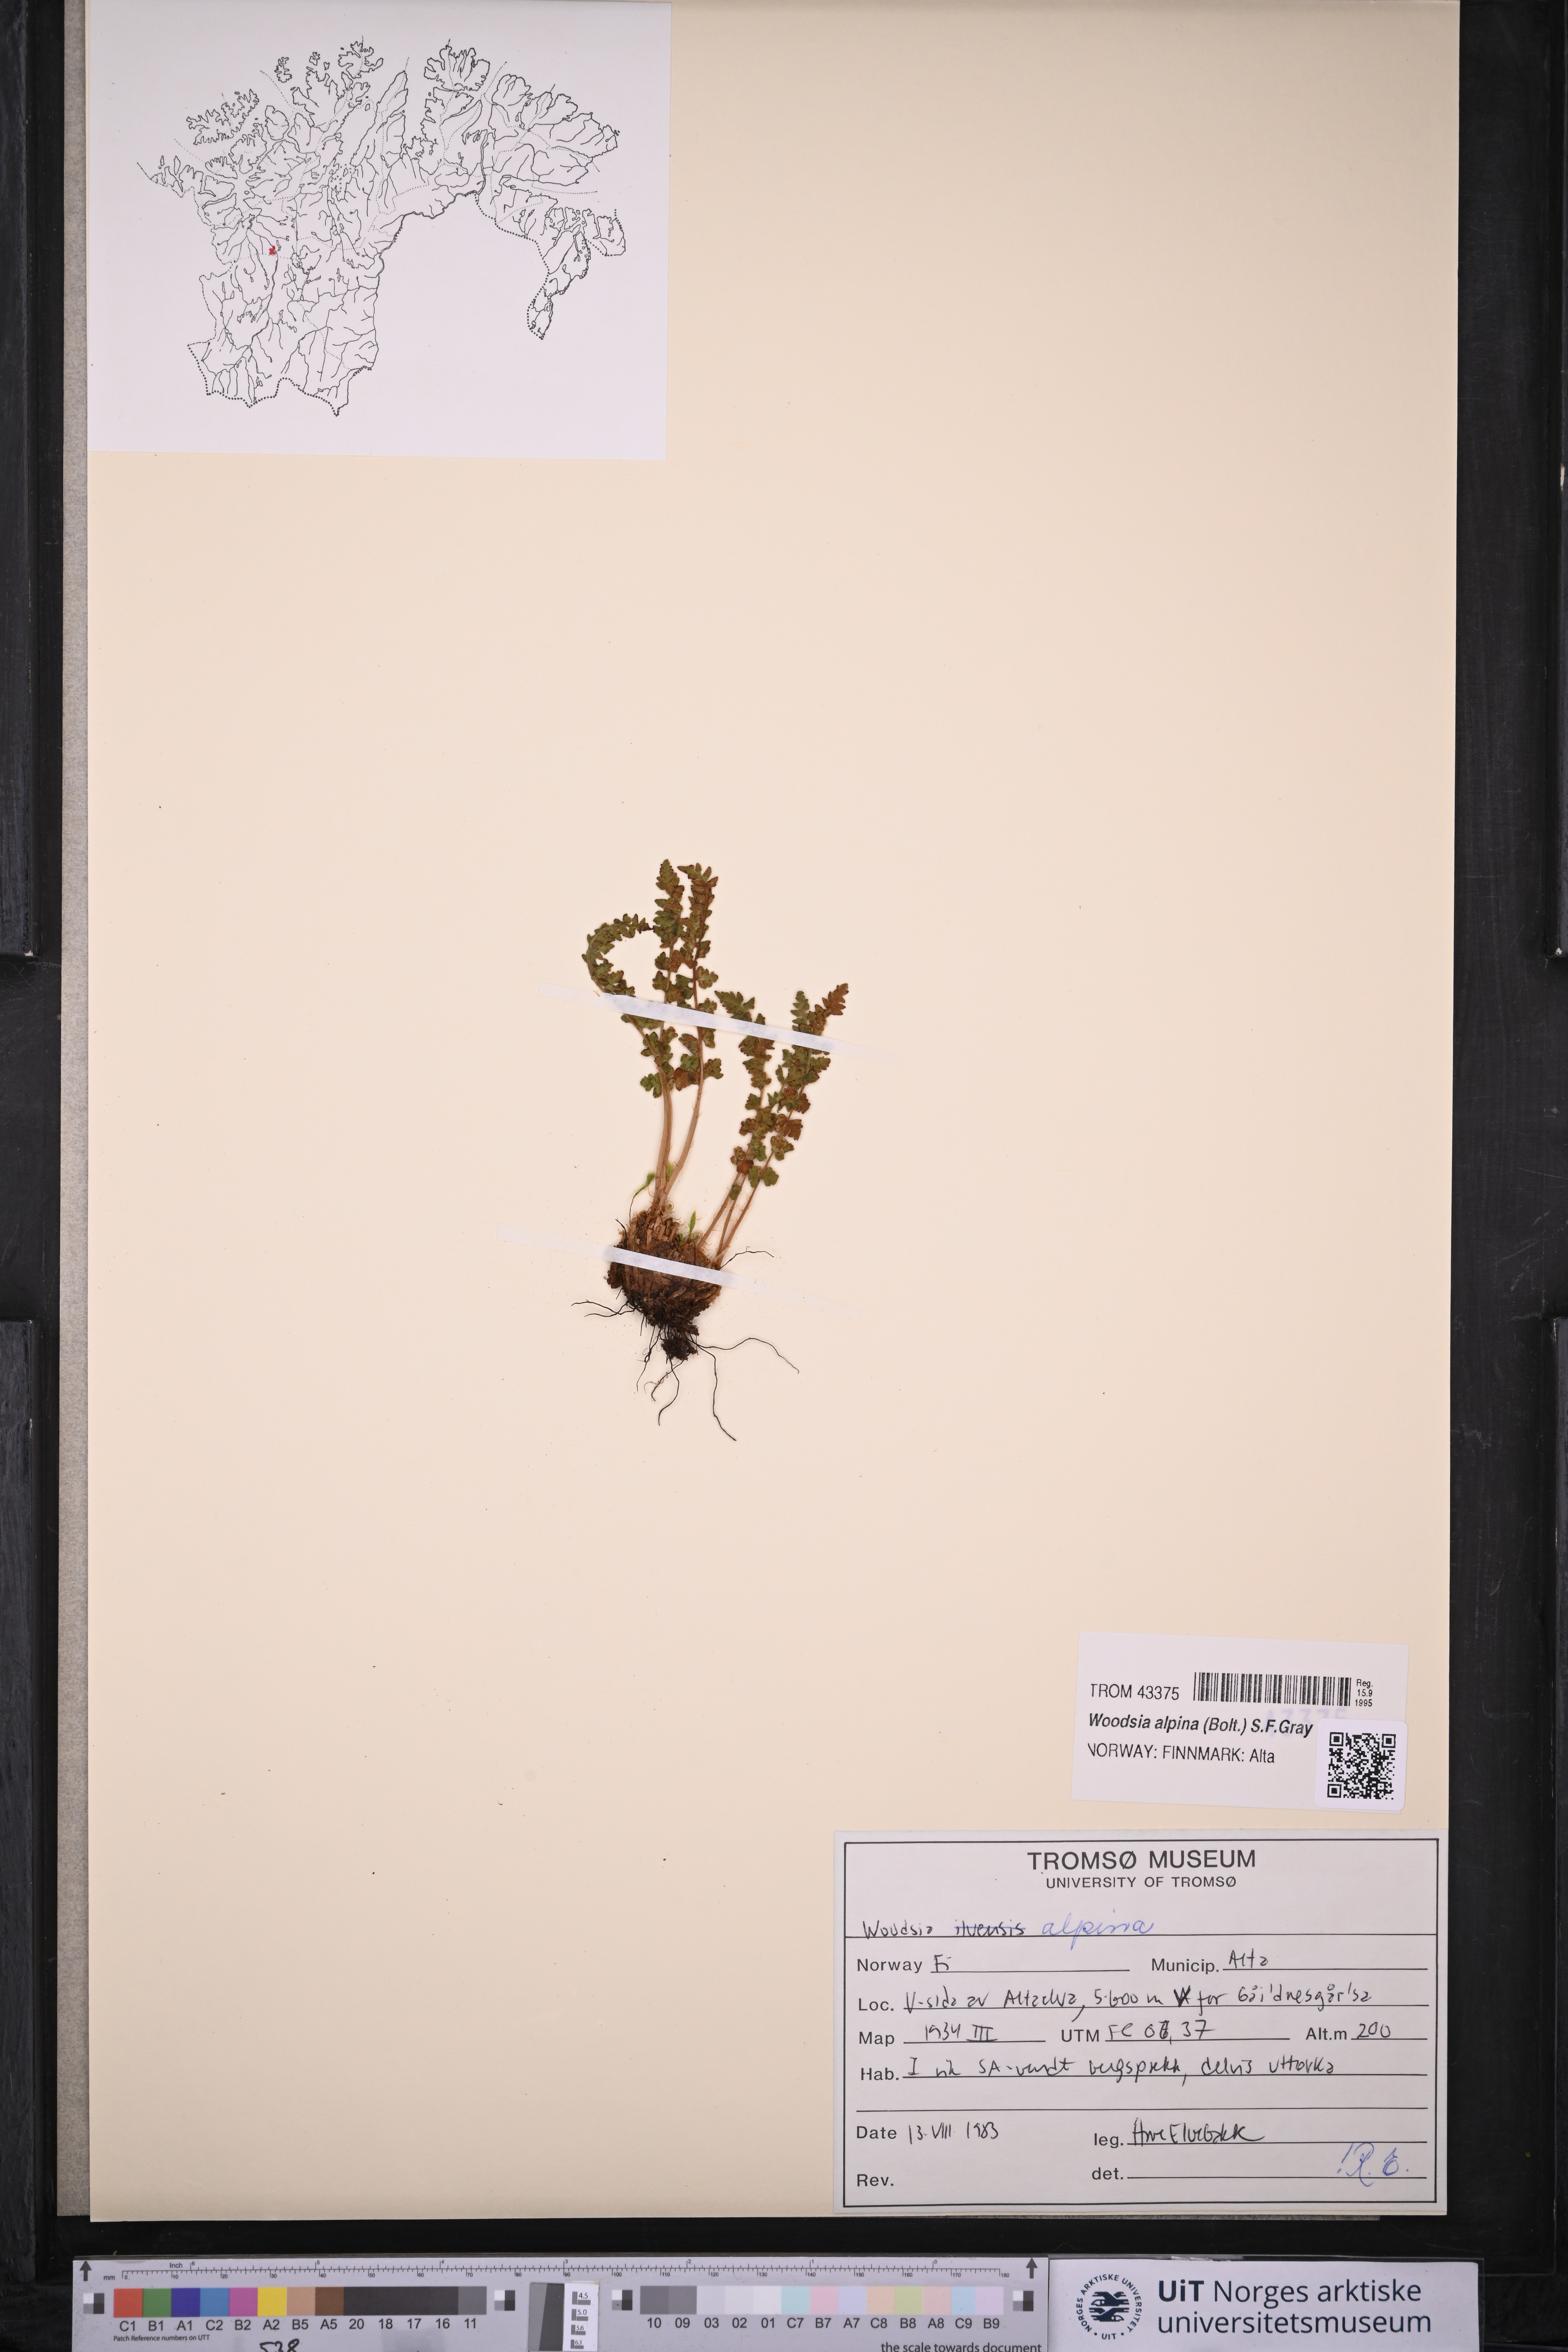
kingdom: Plantae
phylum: Tracheophyta
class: Polypodiopsida
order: Polypodiales
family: Woodsiaceae
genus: Woodsia
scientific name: Woodsia alpina
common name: Alpine woodsia
